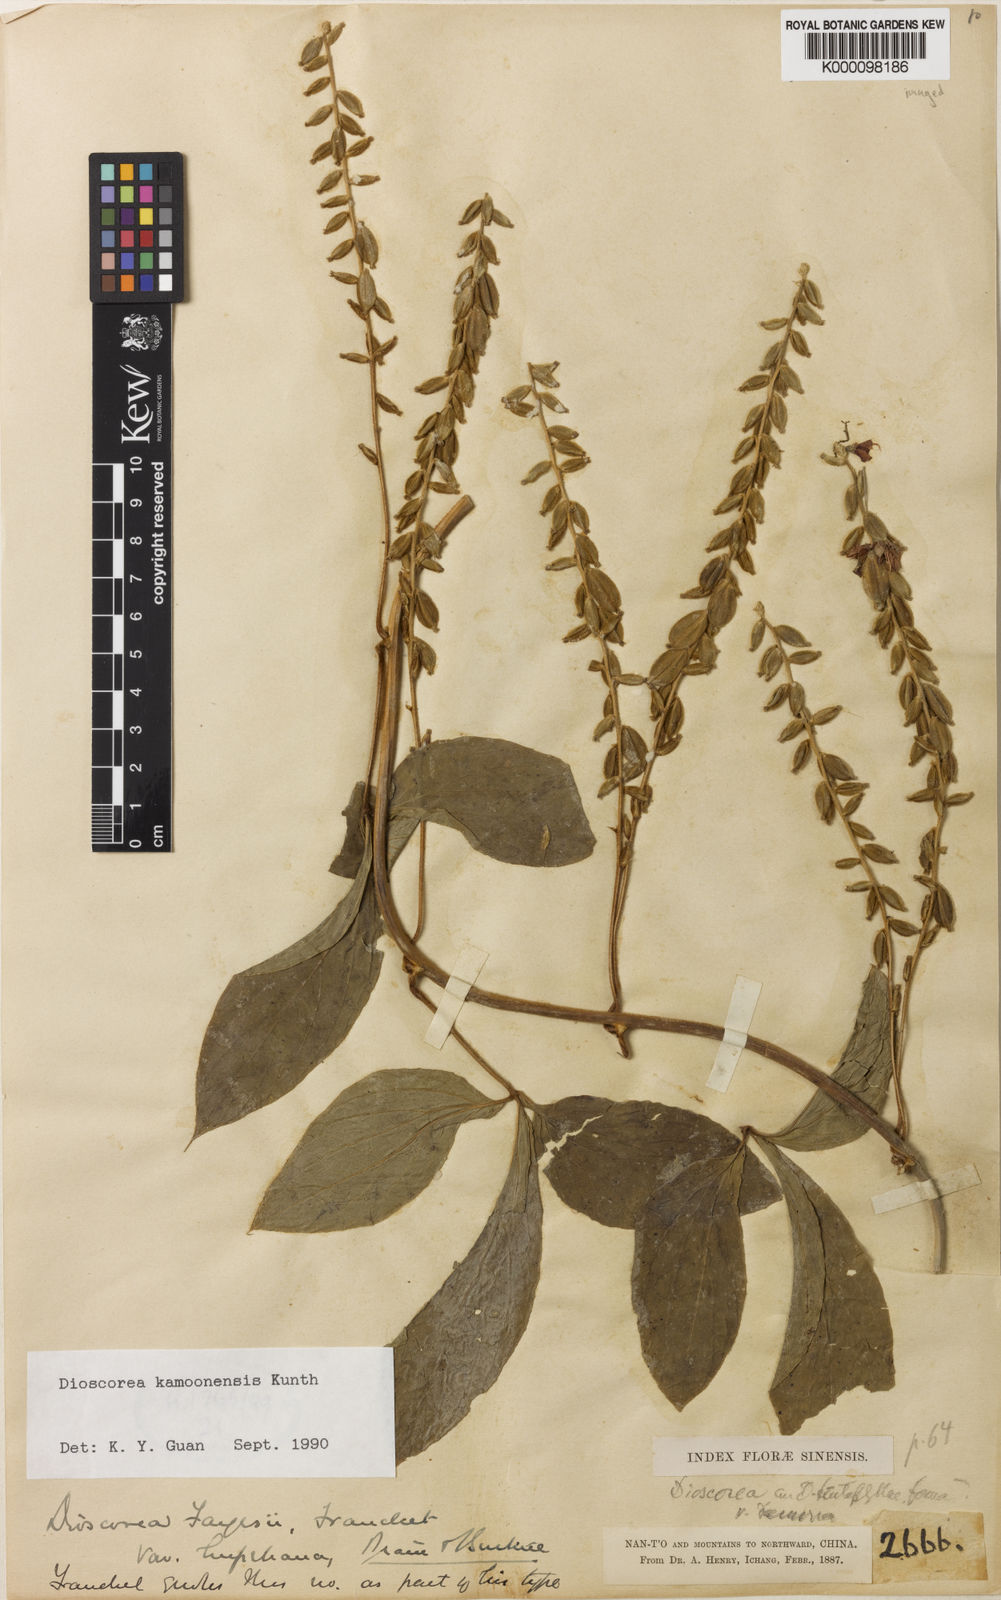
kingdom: Plantae
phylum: Tracheophyta
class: Liliopsida
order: Dioscoreales
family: Dioscoreaceae
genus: Dioscorea
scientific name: Dioscorea kamoonensis
